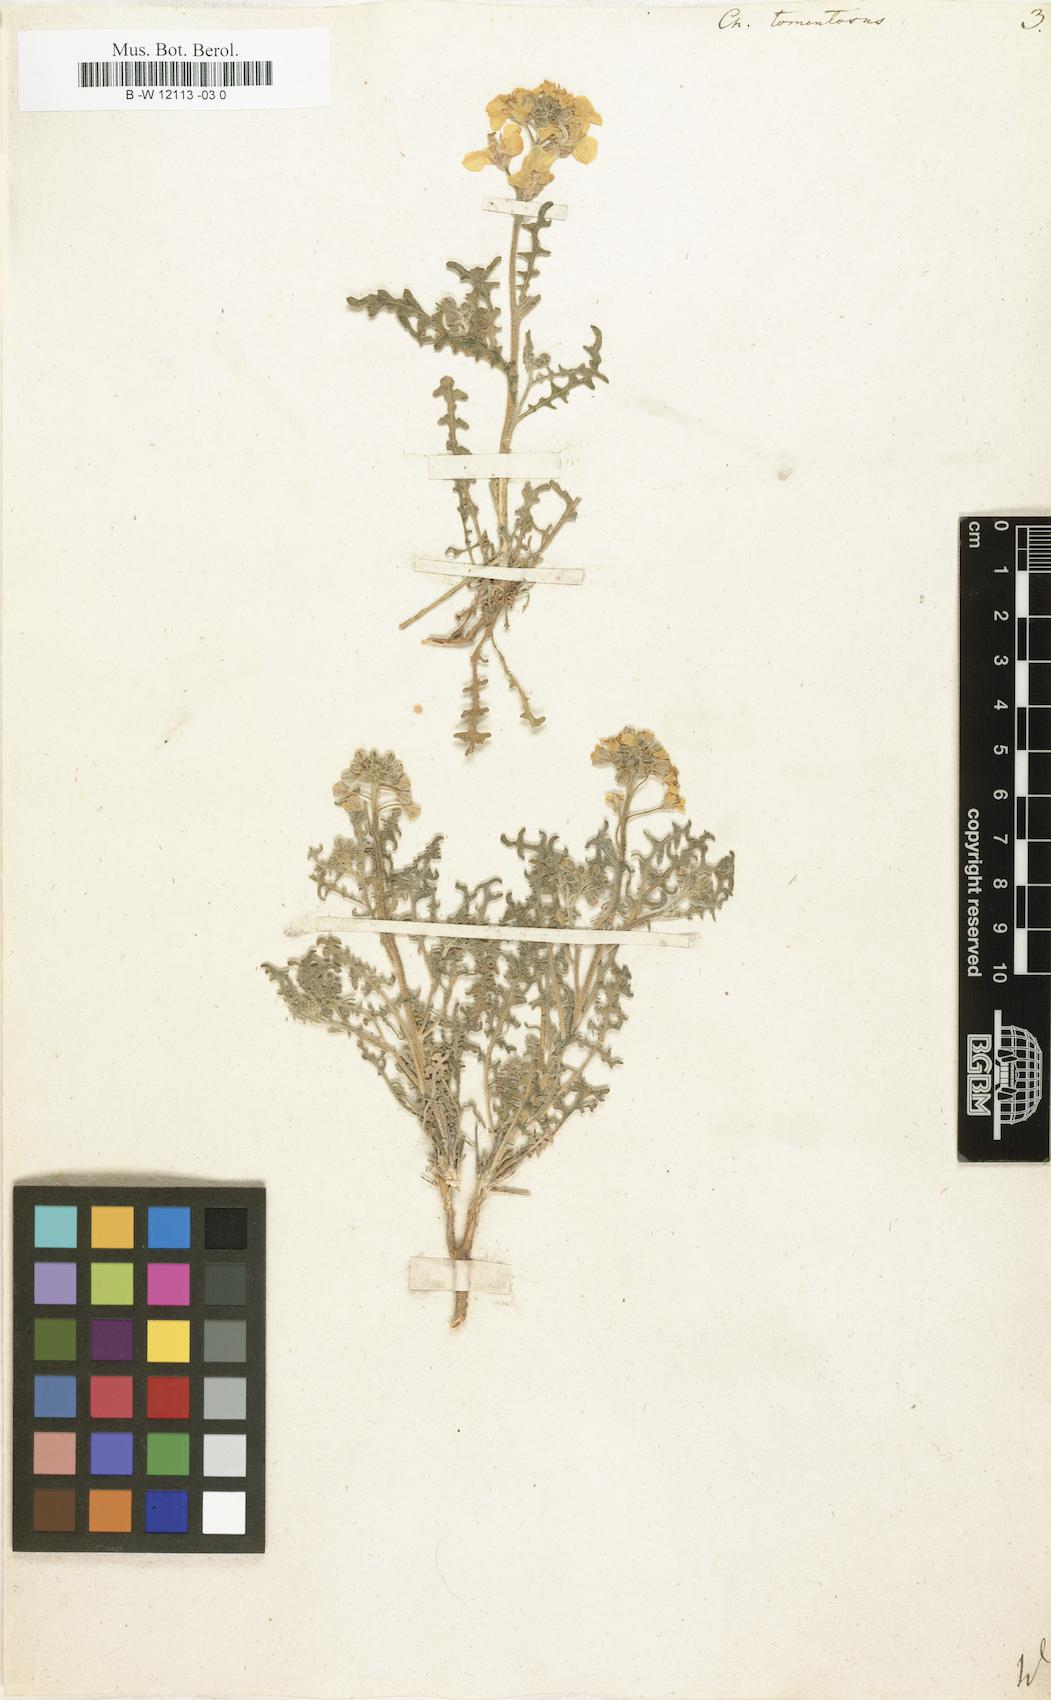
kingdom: Plantae
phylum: Tracheophyta
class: Magnoliopsida
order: Brassicales
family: Brassicaceae
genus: Sterigmostemum
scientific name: Sterigmostemum caspicum
